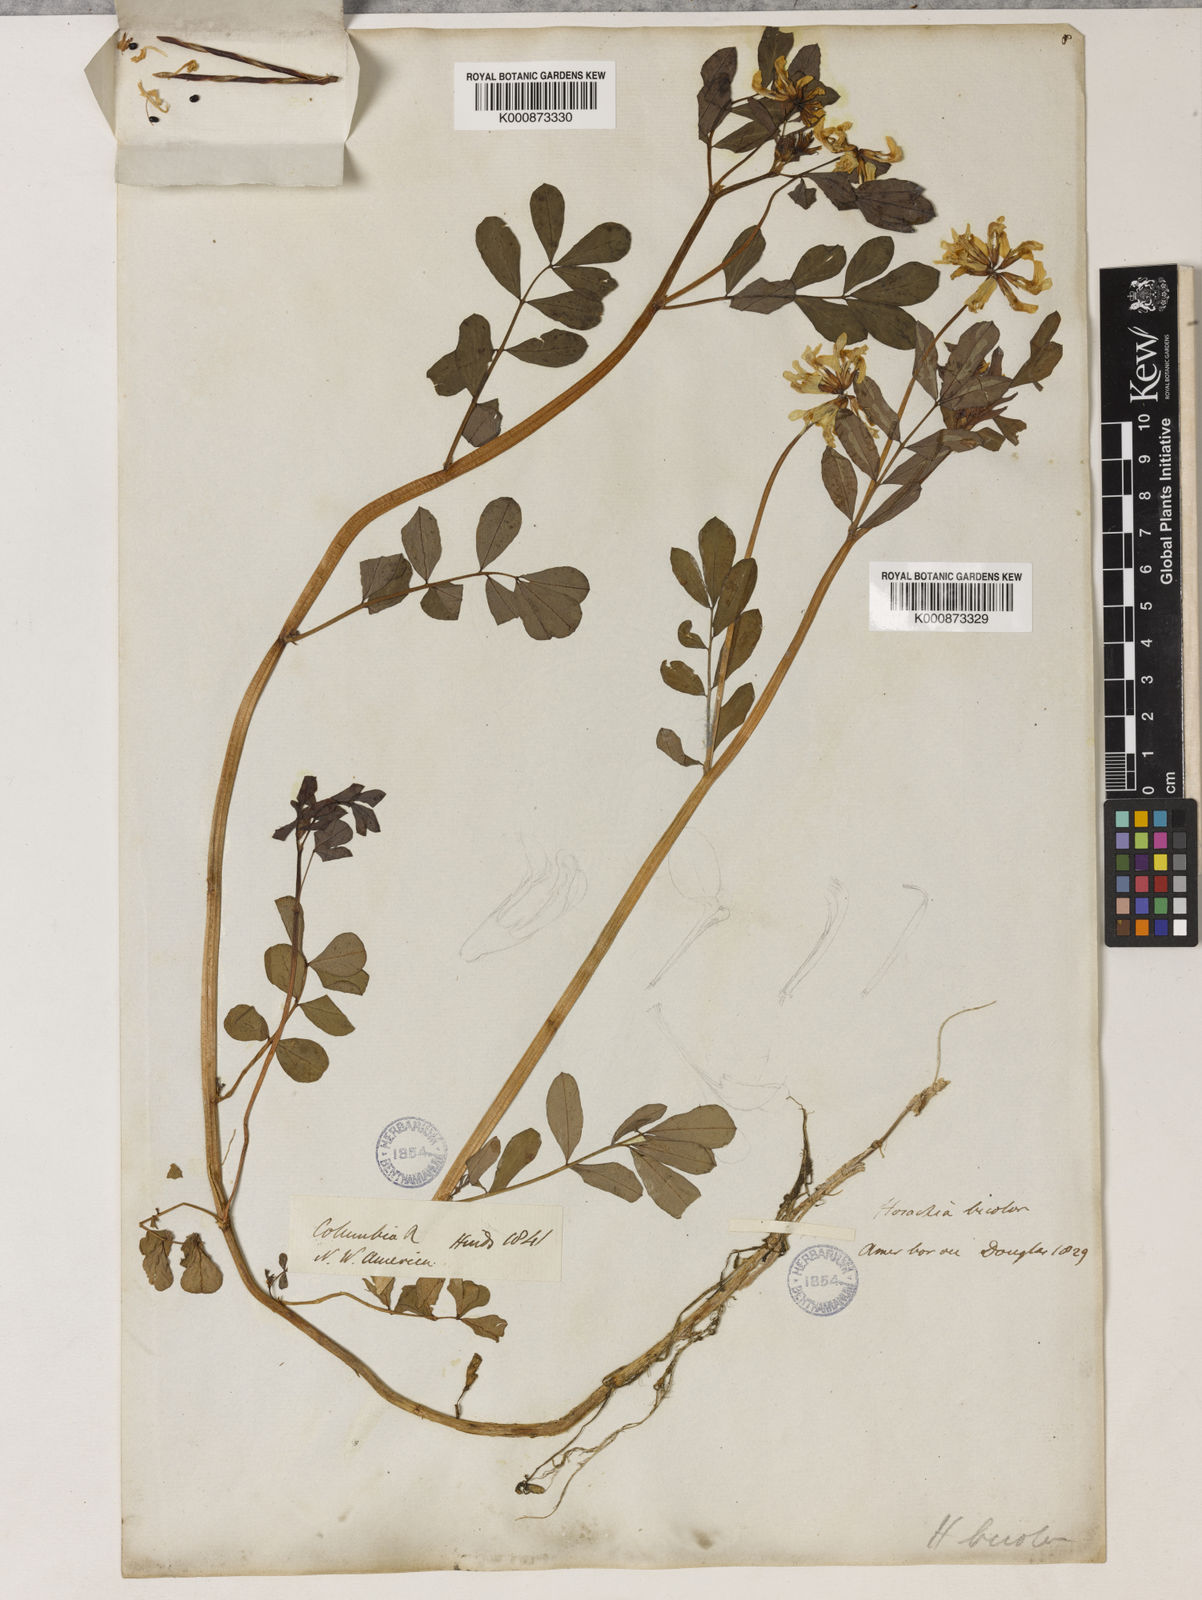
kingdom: Plantae
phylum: Tracheophyta
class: Magnoliopsida
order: Fabales
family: Fabaceae
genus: Hosackia
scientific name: Hosackia pinnata
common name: Bog bird's-foot trefoil
